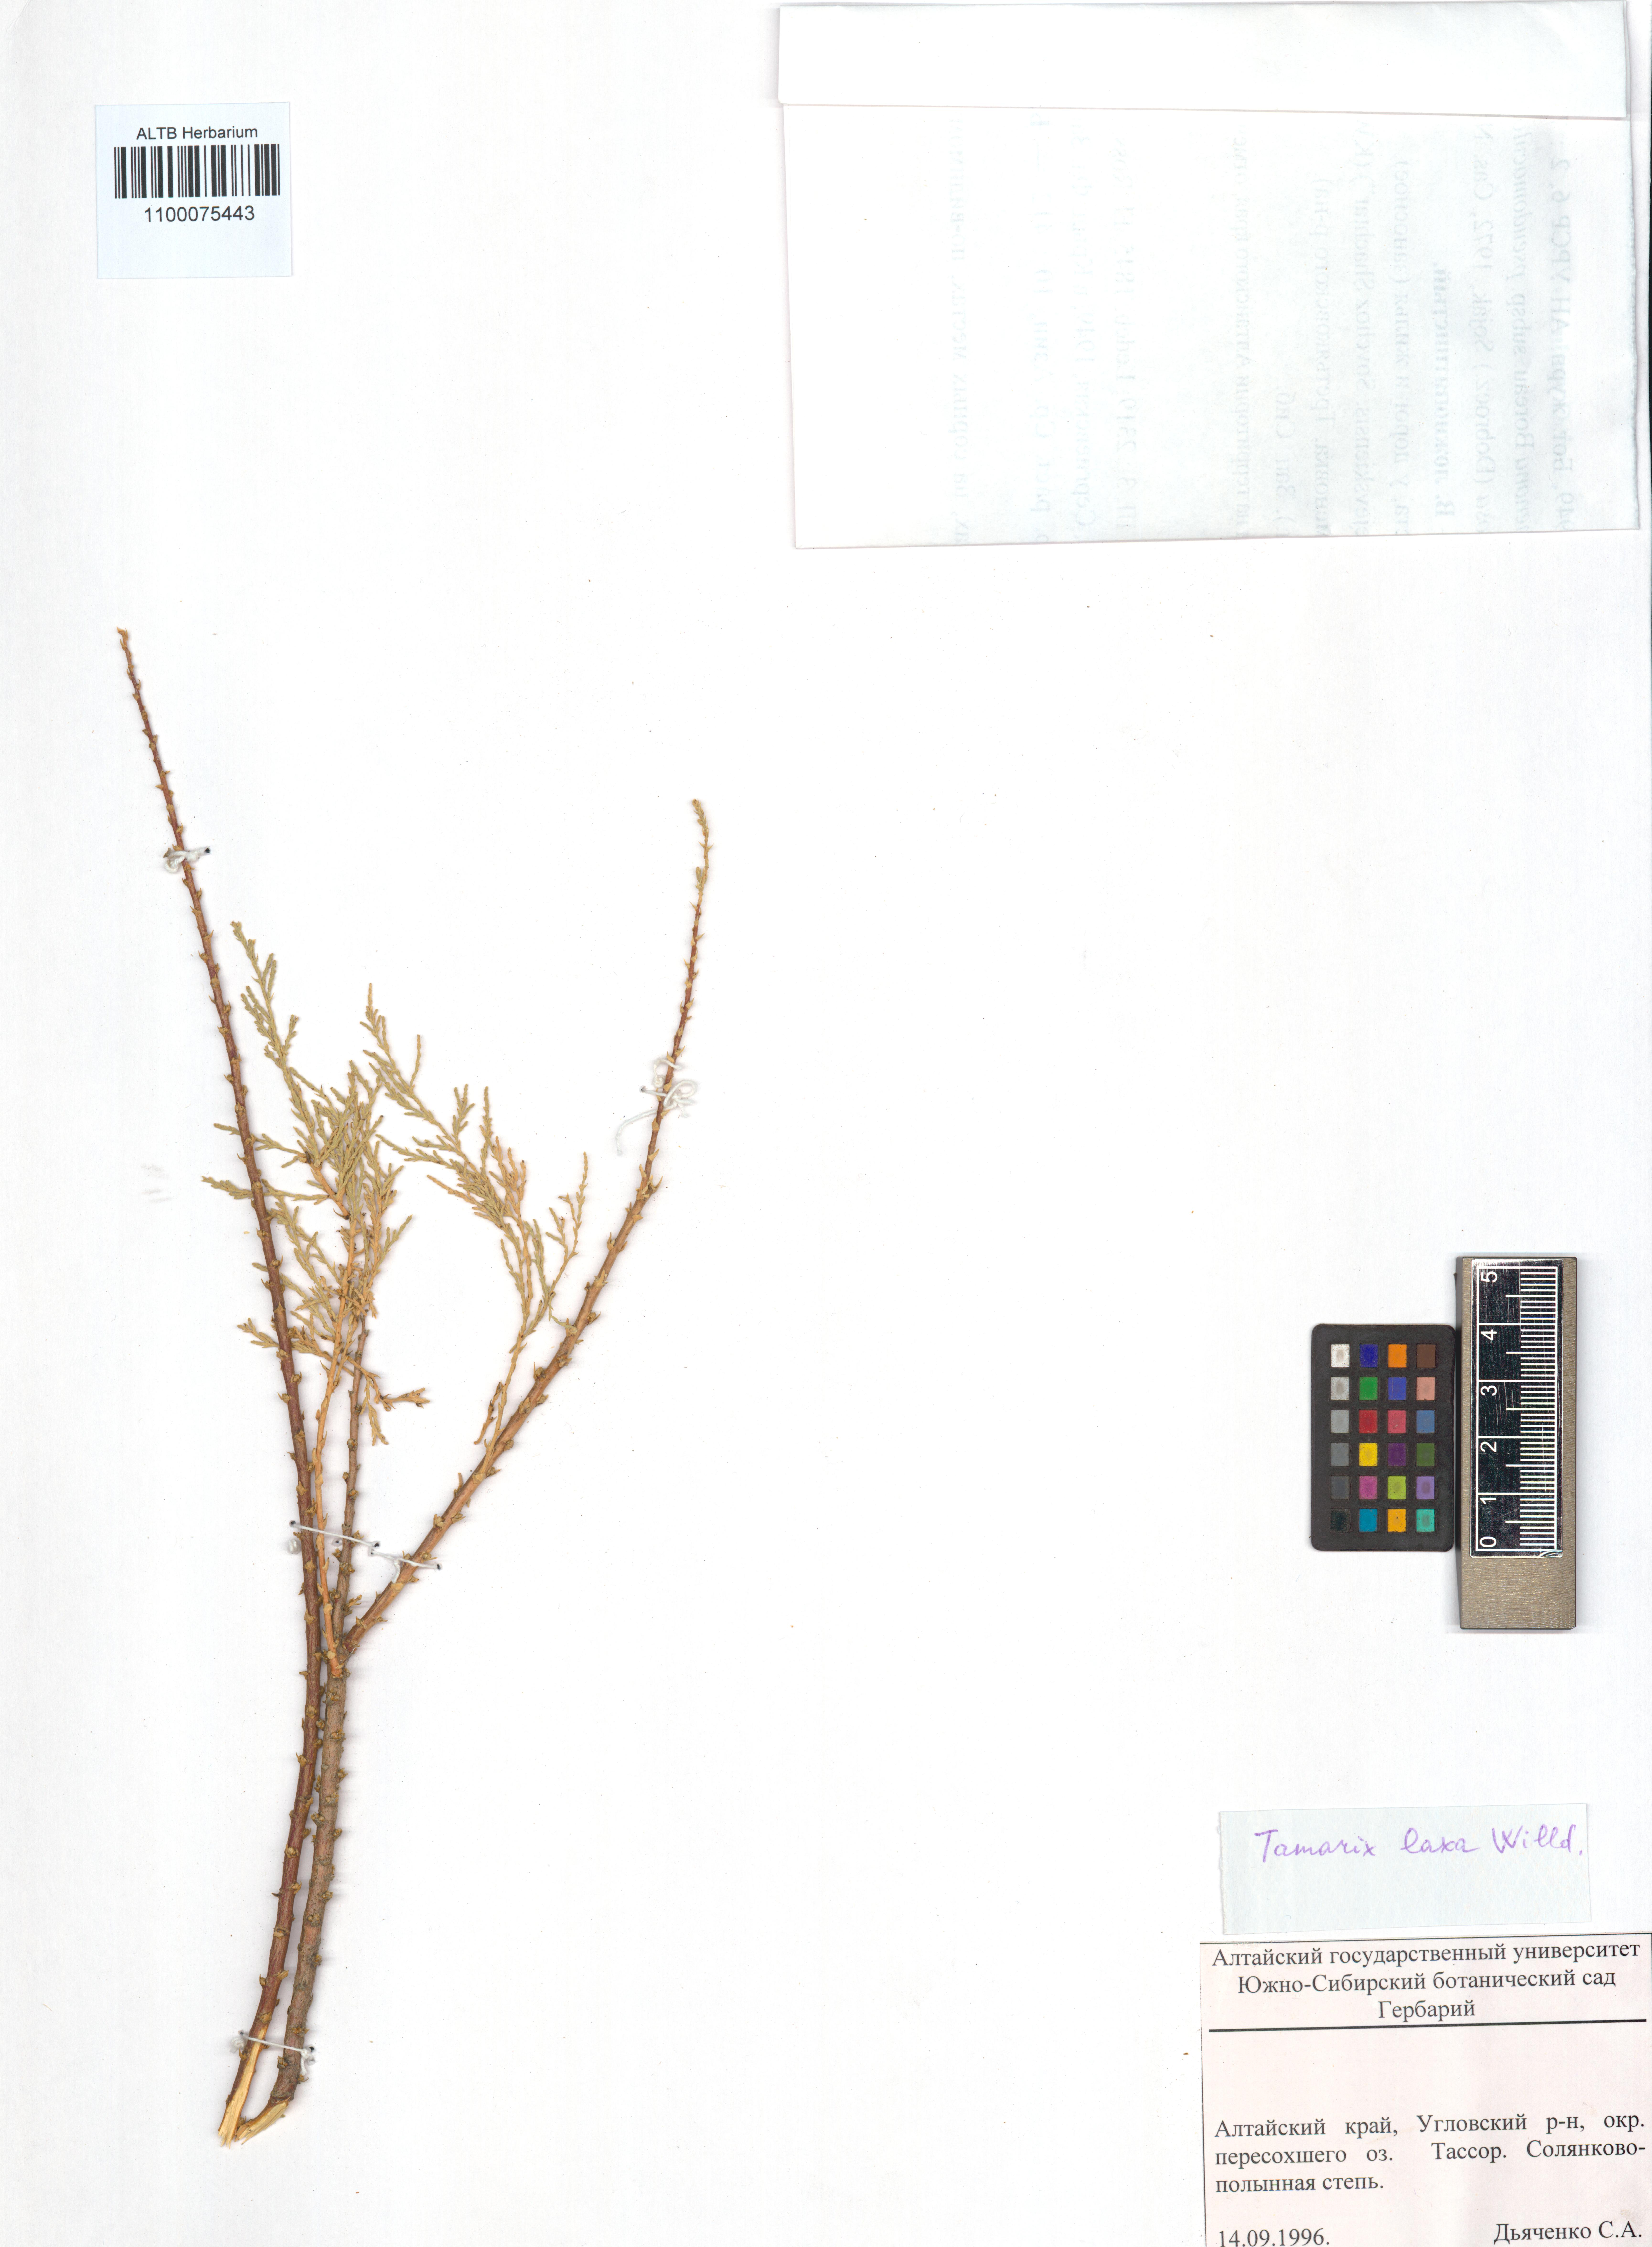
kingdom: Plantae
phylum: Tracheophyta
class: Magnoliopsida
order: Caryophyllales
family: Tamaricaceae
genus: Tamarix
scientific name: Tamarix laxa
